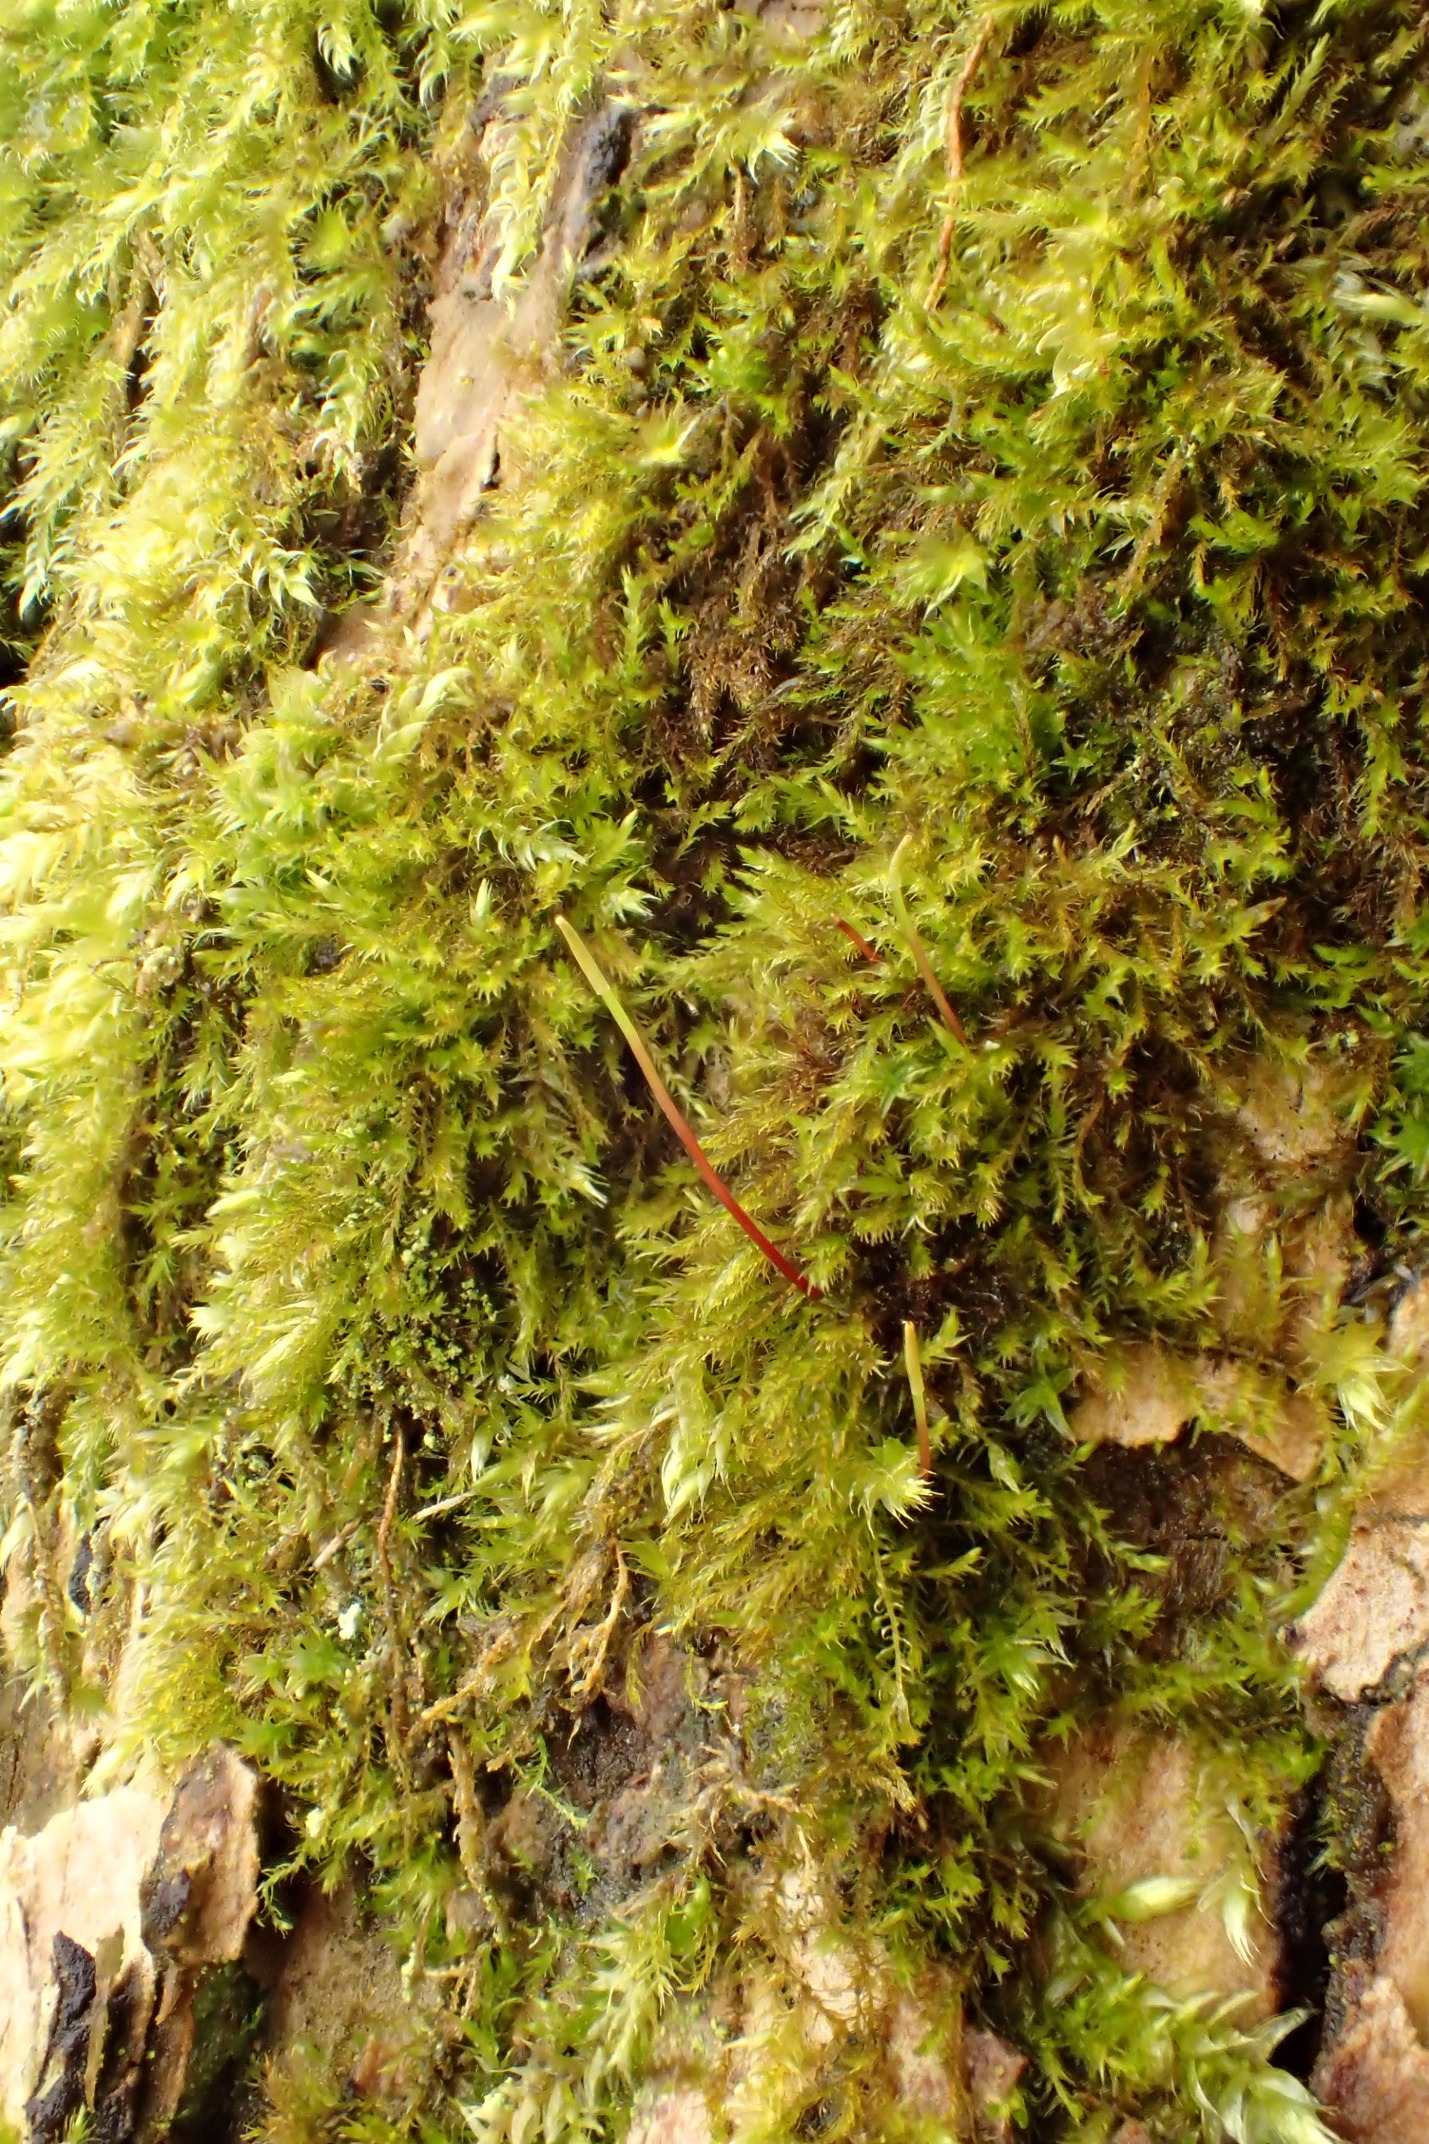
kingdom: Plantae
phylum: Bryophyta
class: Bryopsida
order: Hypnales
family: Amblystegiaceae
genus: Amblystegium
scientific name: Amblystegium serpens
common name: Almindelig krybmos
